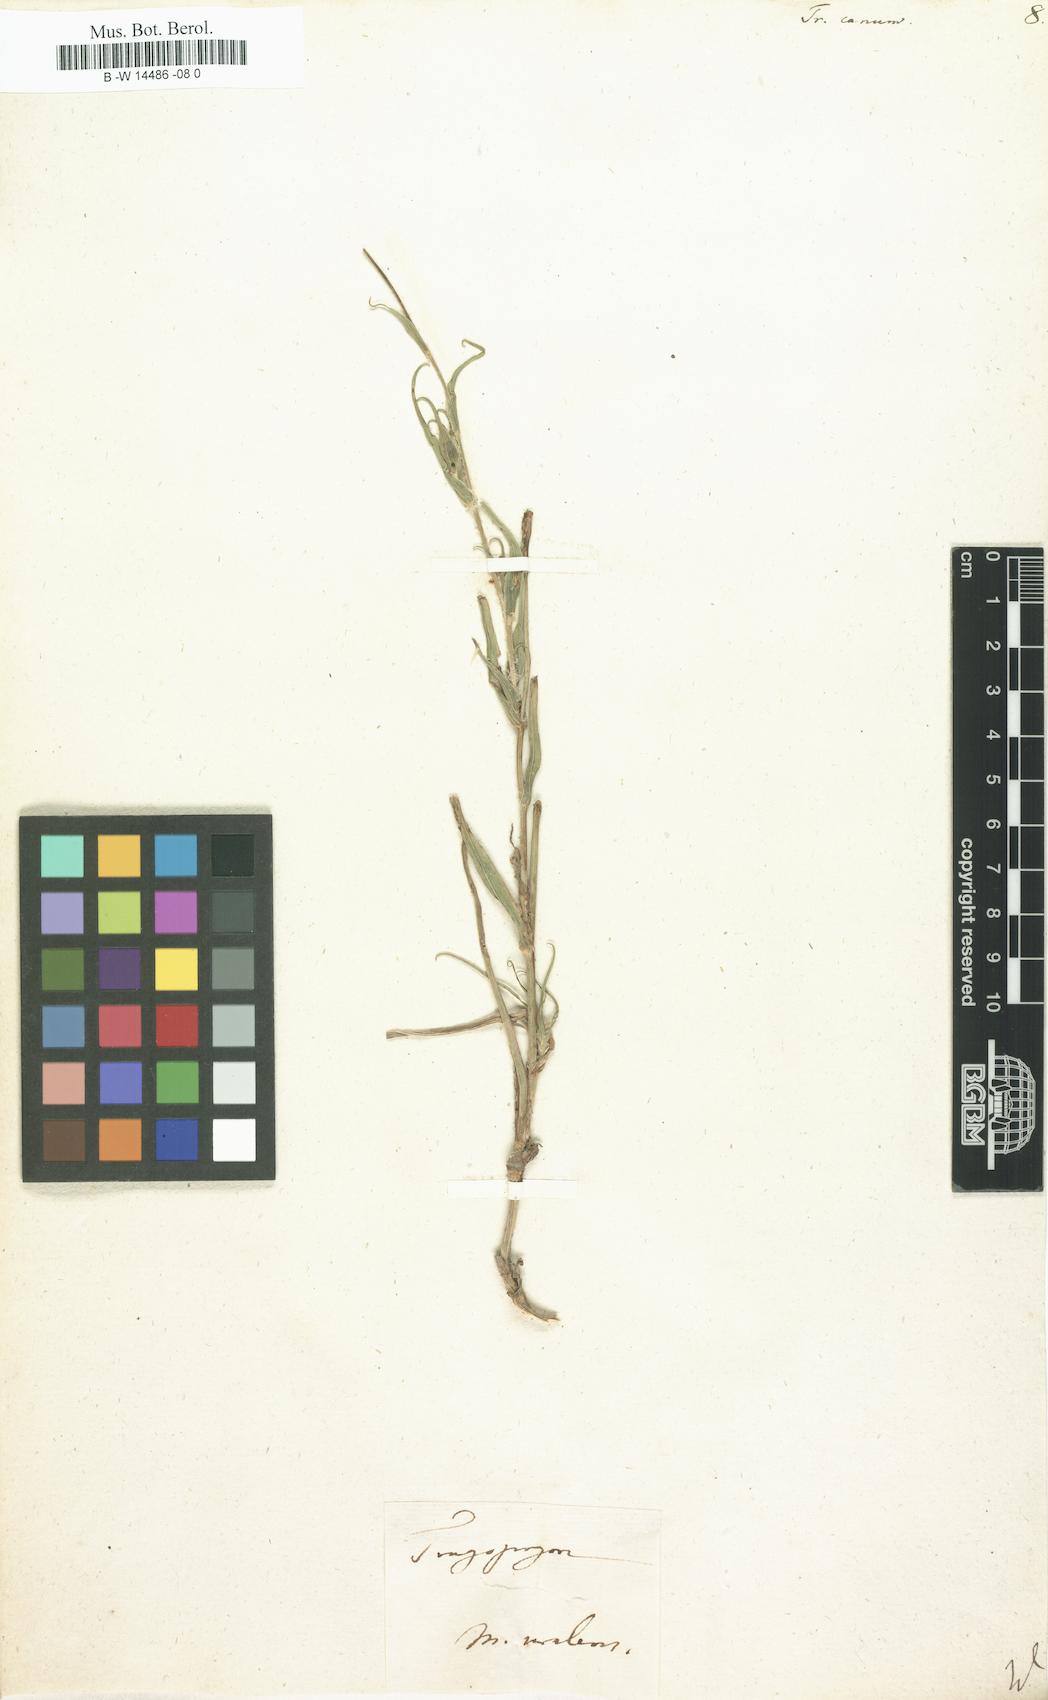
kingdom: Plantae
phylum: Tracheophyta
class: Magnoliopsida
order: Asterales
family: Asteraceae
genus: Tragopogon
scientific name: Tragopogon floccosus
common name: Woolly goatsbeard
